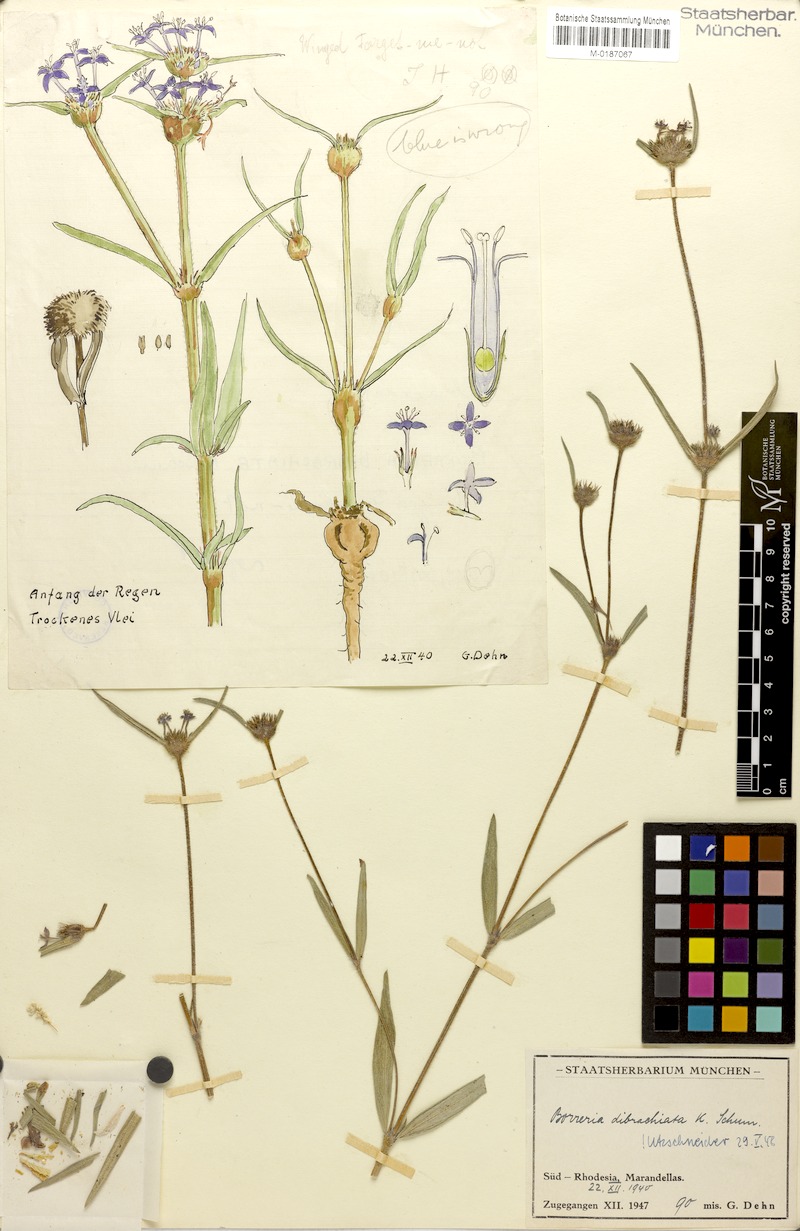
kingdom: Plantae
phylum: Tracheophyta
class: Magnoliopsida
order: Gentianales
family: Rubiaceae
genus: Spermacoce
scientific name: Spermacoce dibrachiata
